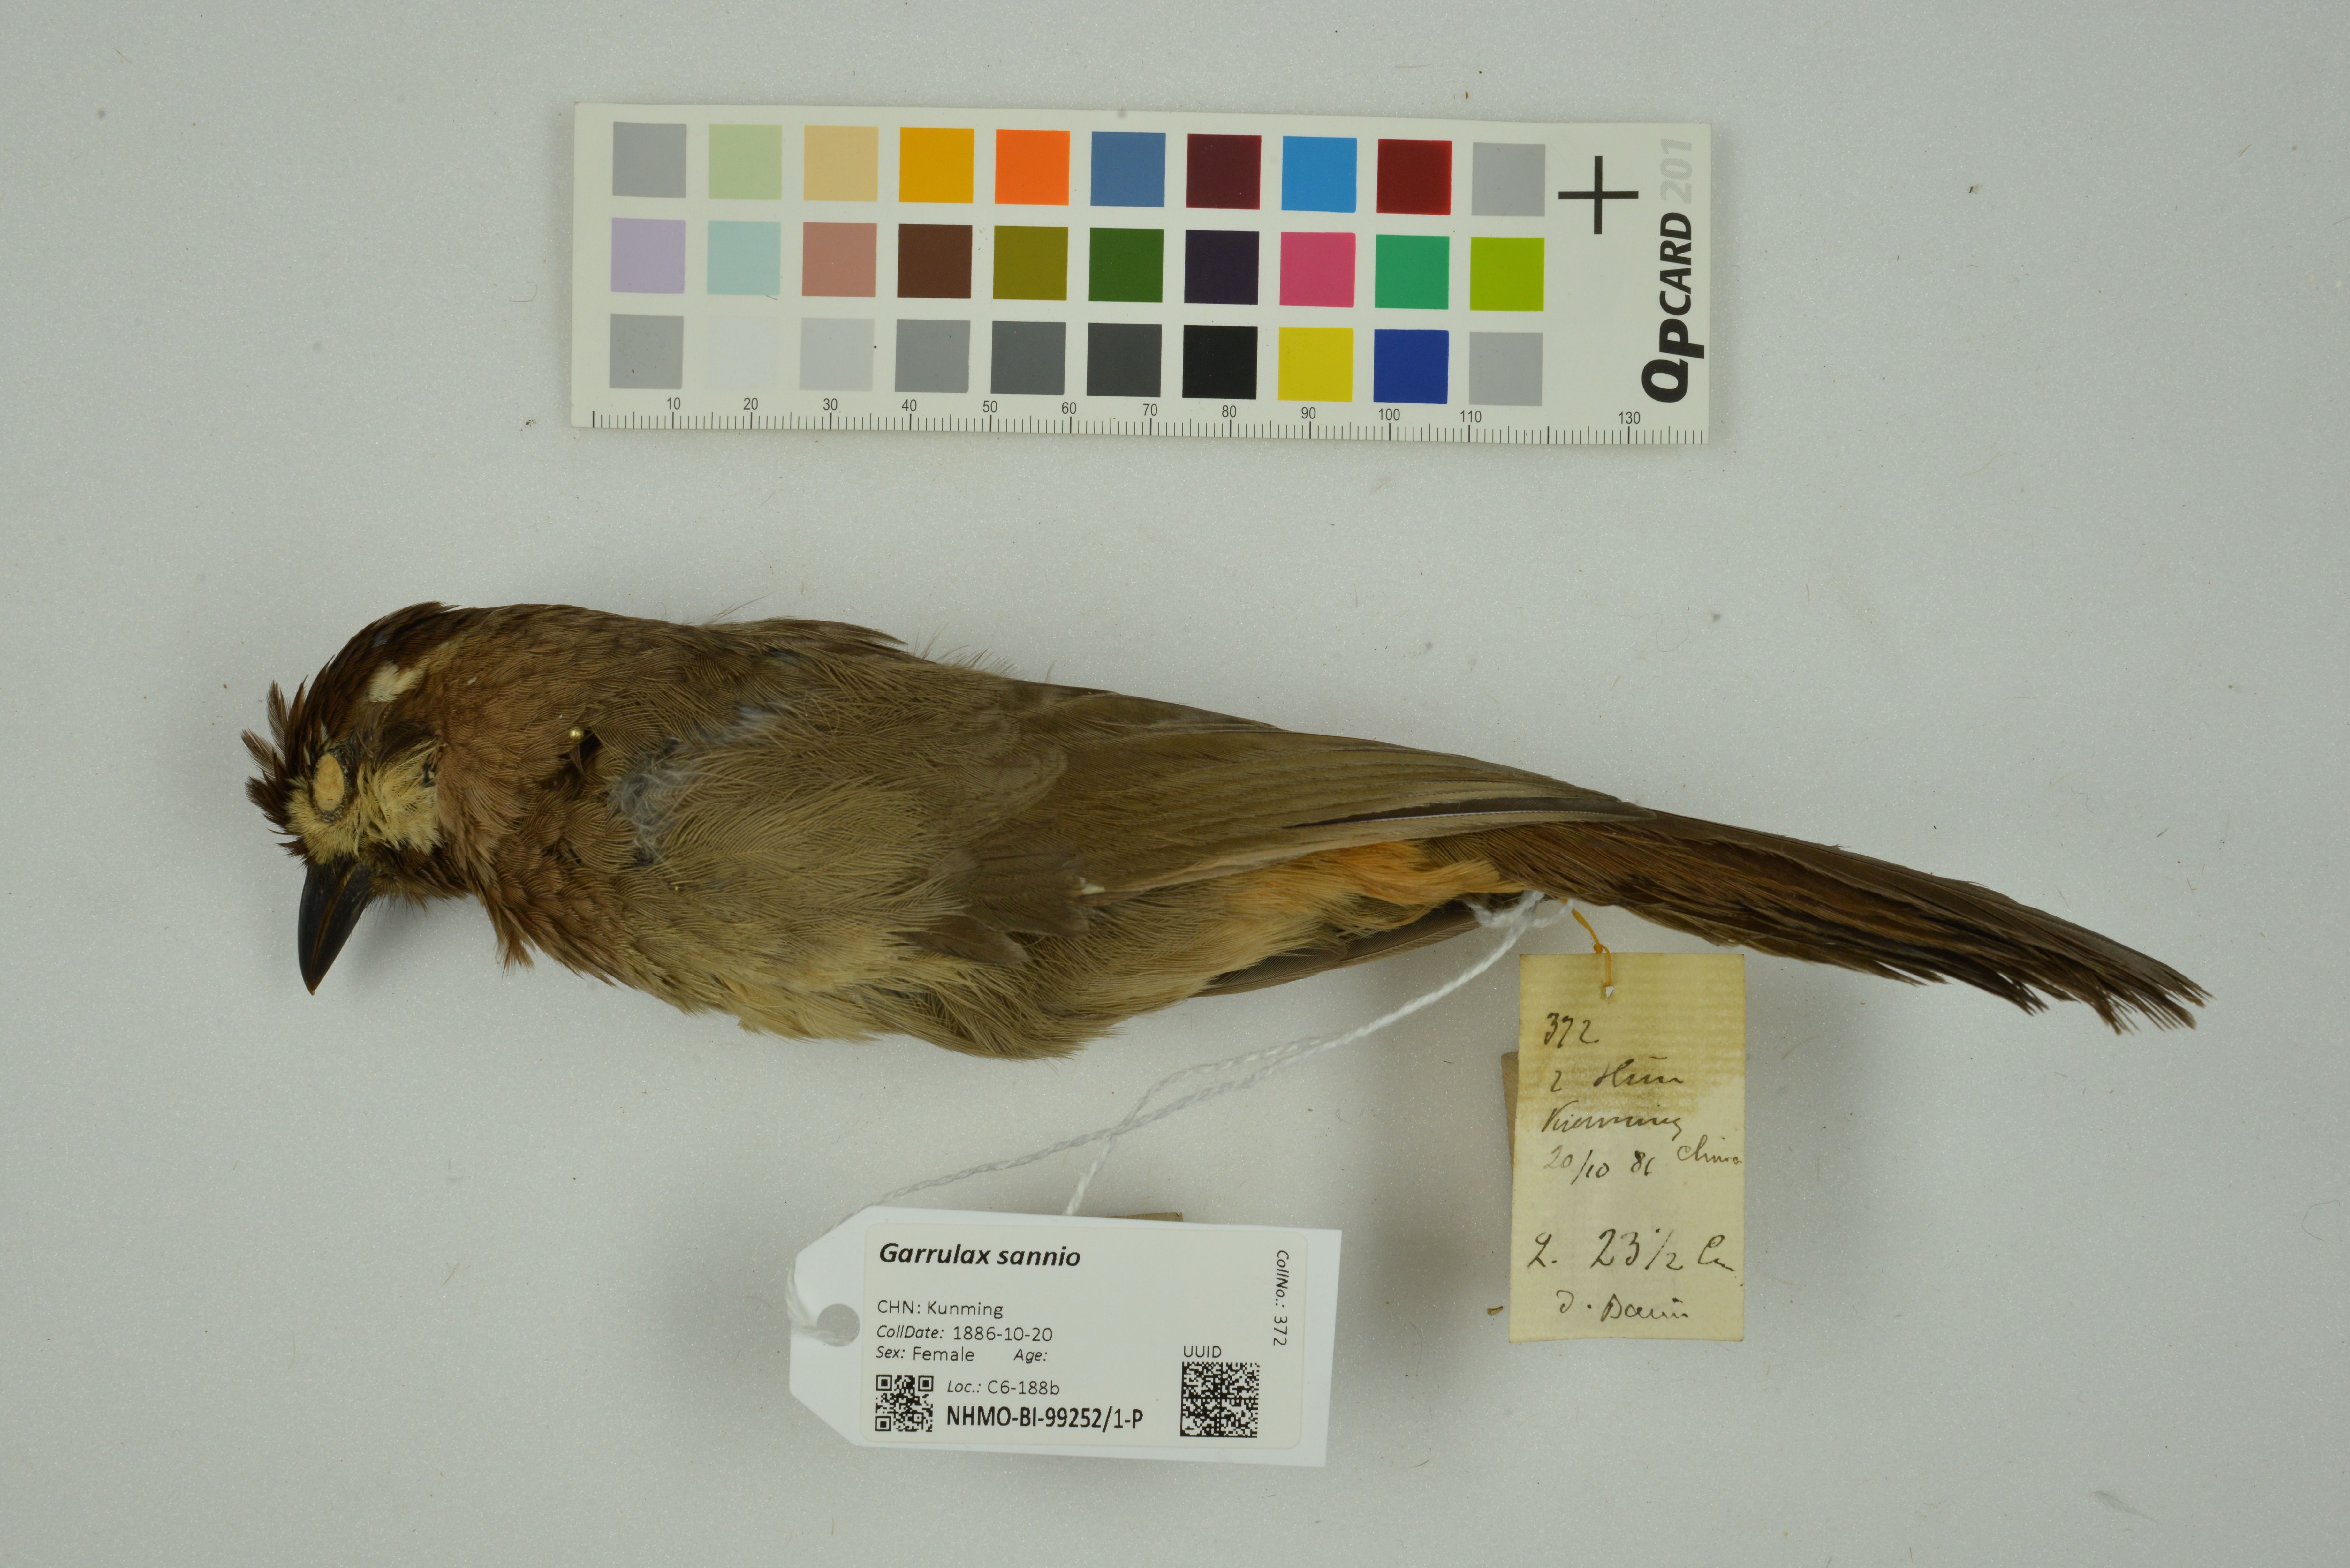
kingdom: Animalia
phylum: Chordata
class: Aves
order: Passeriformes
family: Leiothrichidae
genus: Pterorhinus
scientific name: Pterorhinus sannio
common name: White-browed laughingthrush
